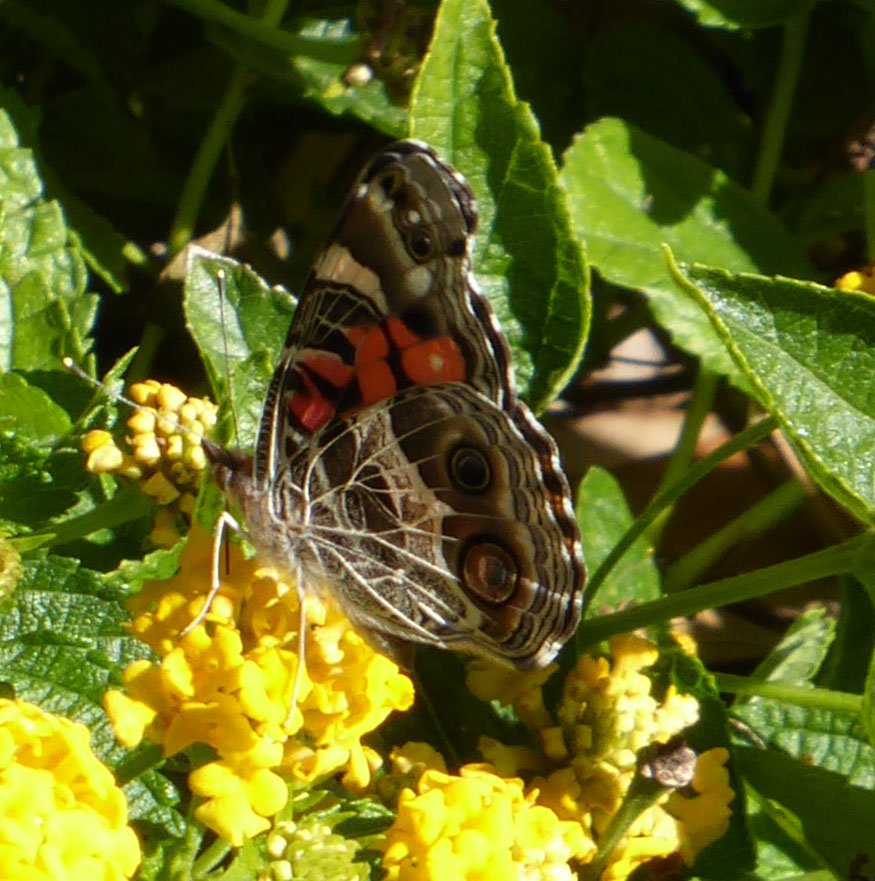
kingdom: Animalia
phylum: Arthropoda
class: Insecta
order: Lepidoptera
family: Nymphalidae
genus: Vanessa
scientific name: Vanessa virginiensis
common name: American Lady
